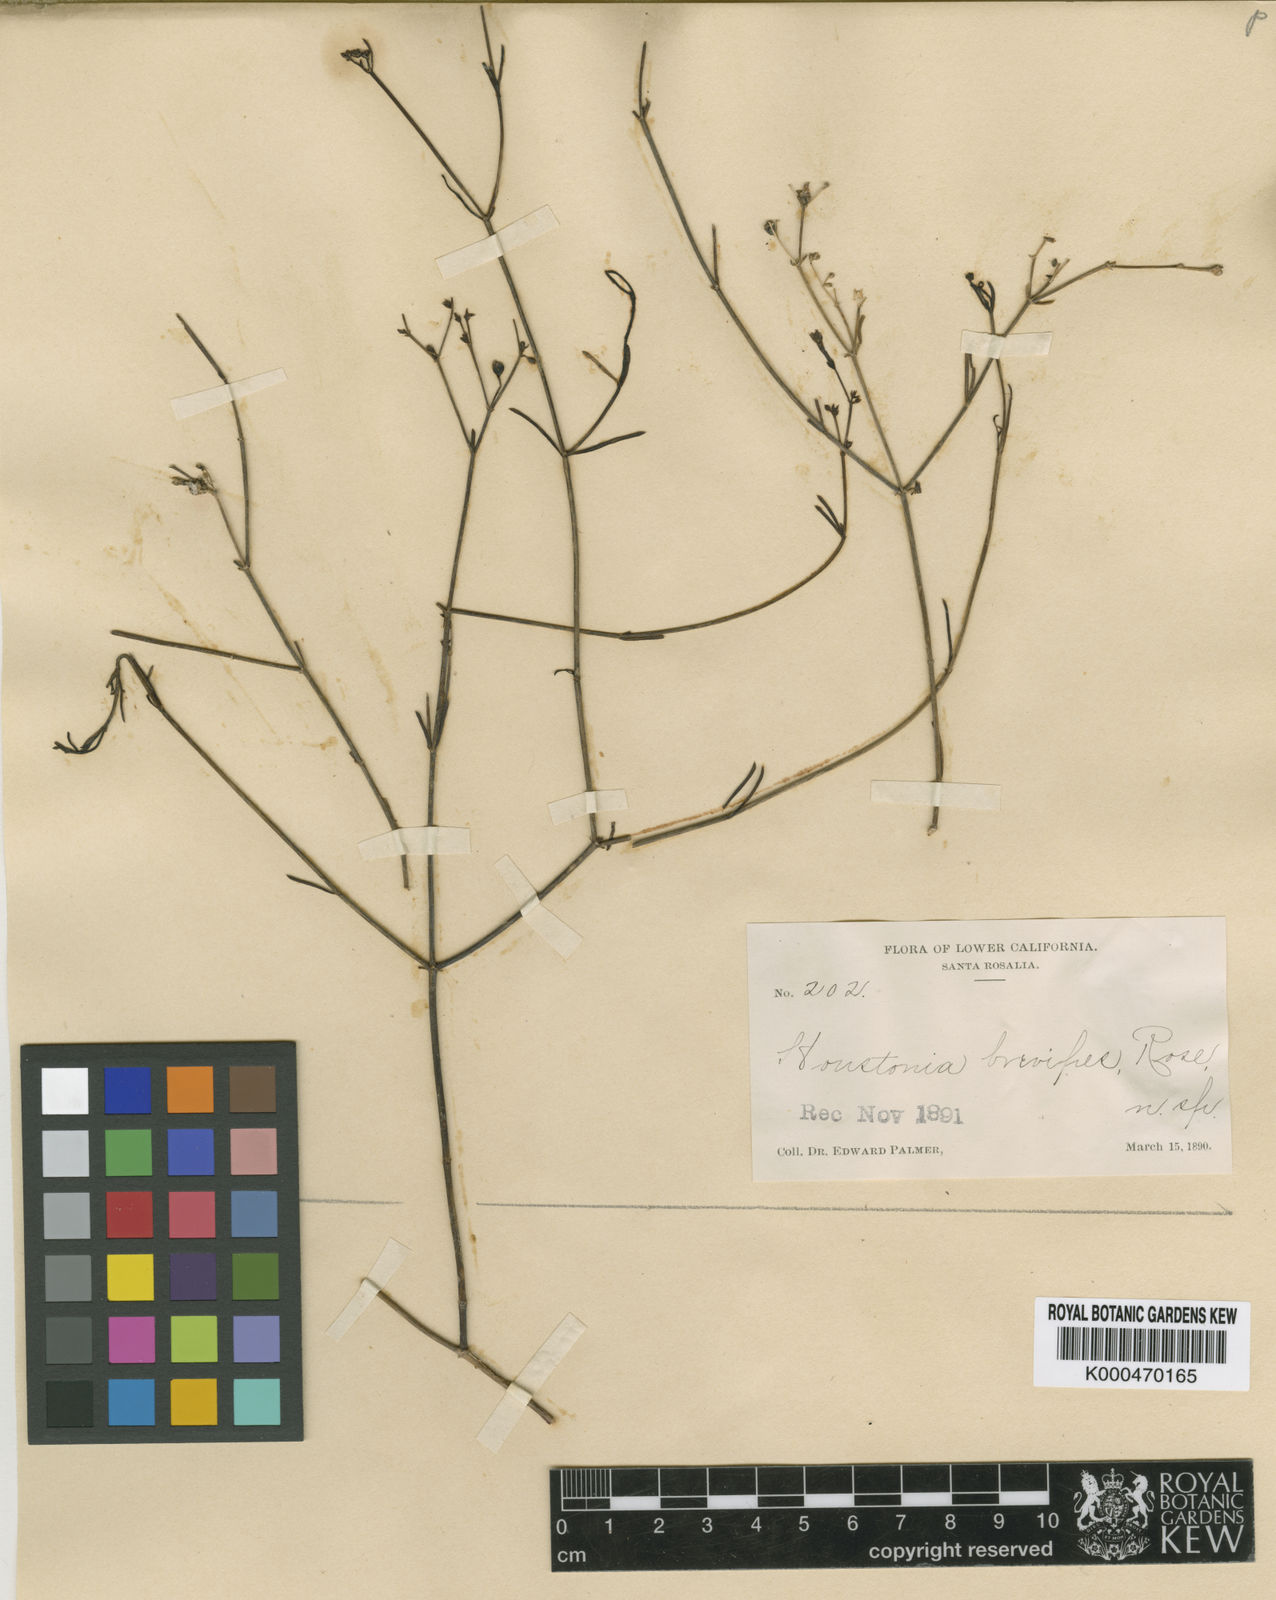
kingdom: Plantae
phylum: Tracheophyta
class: Magnoliopsida
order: Gentianales
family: Rubiaceae
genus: Stenotis
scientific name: Stenotis brevipes
